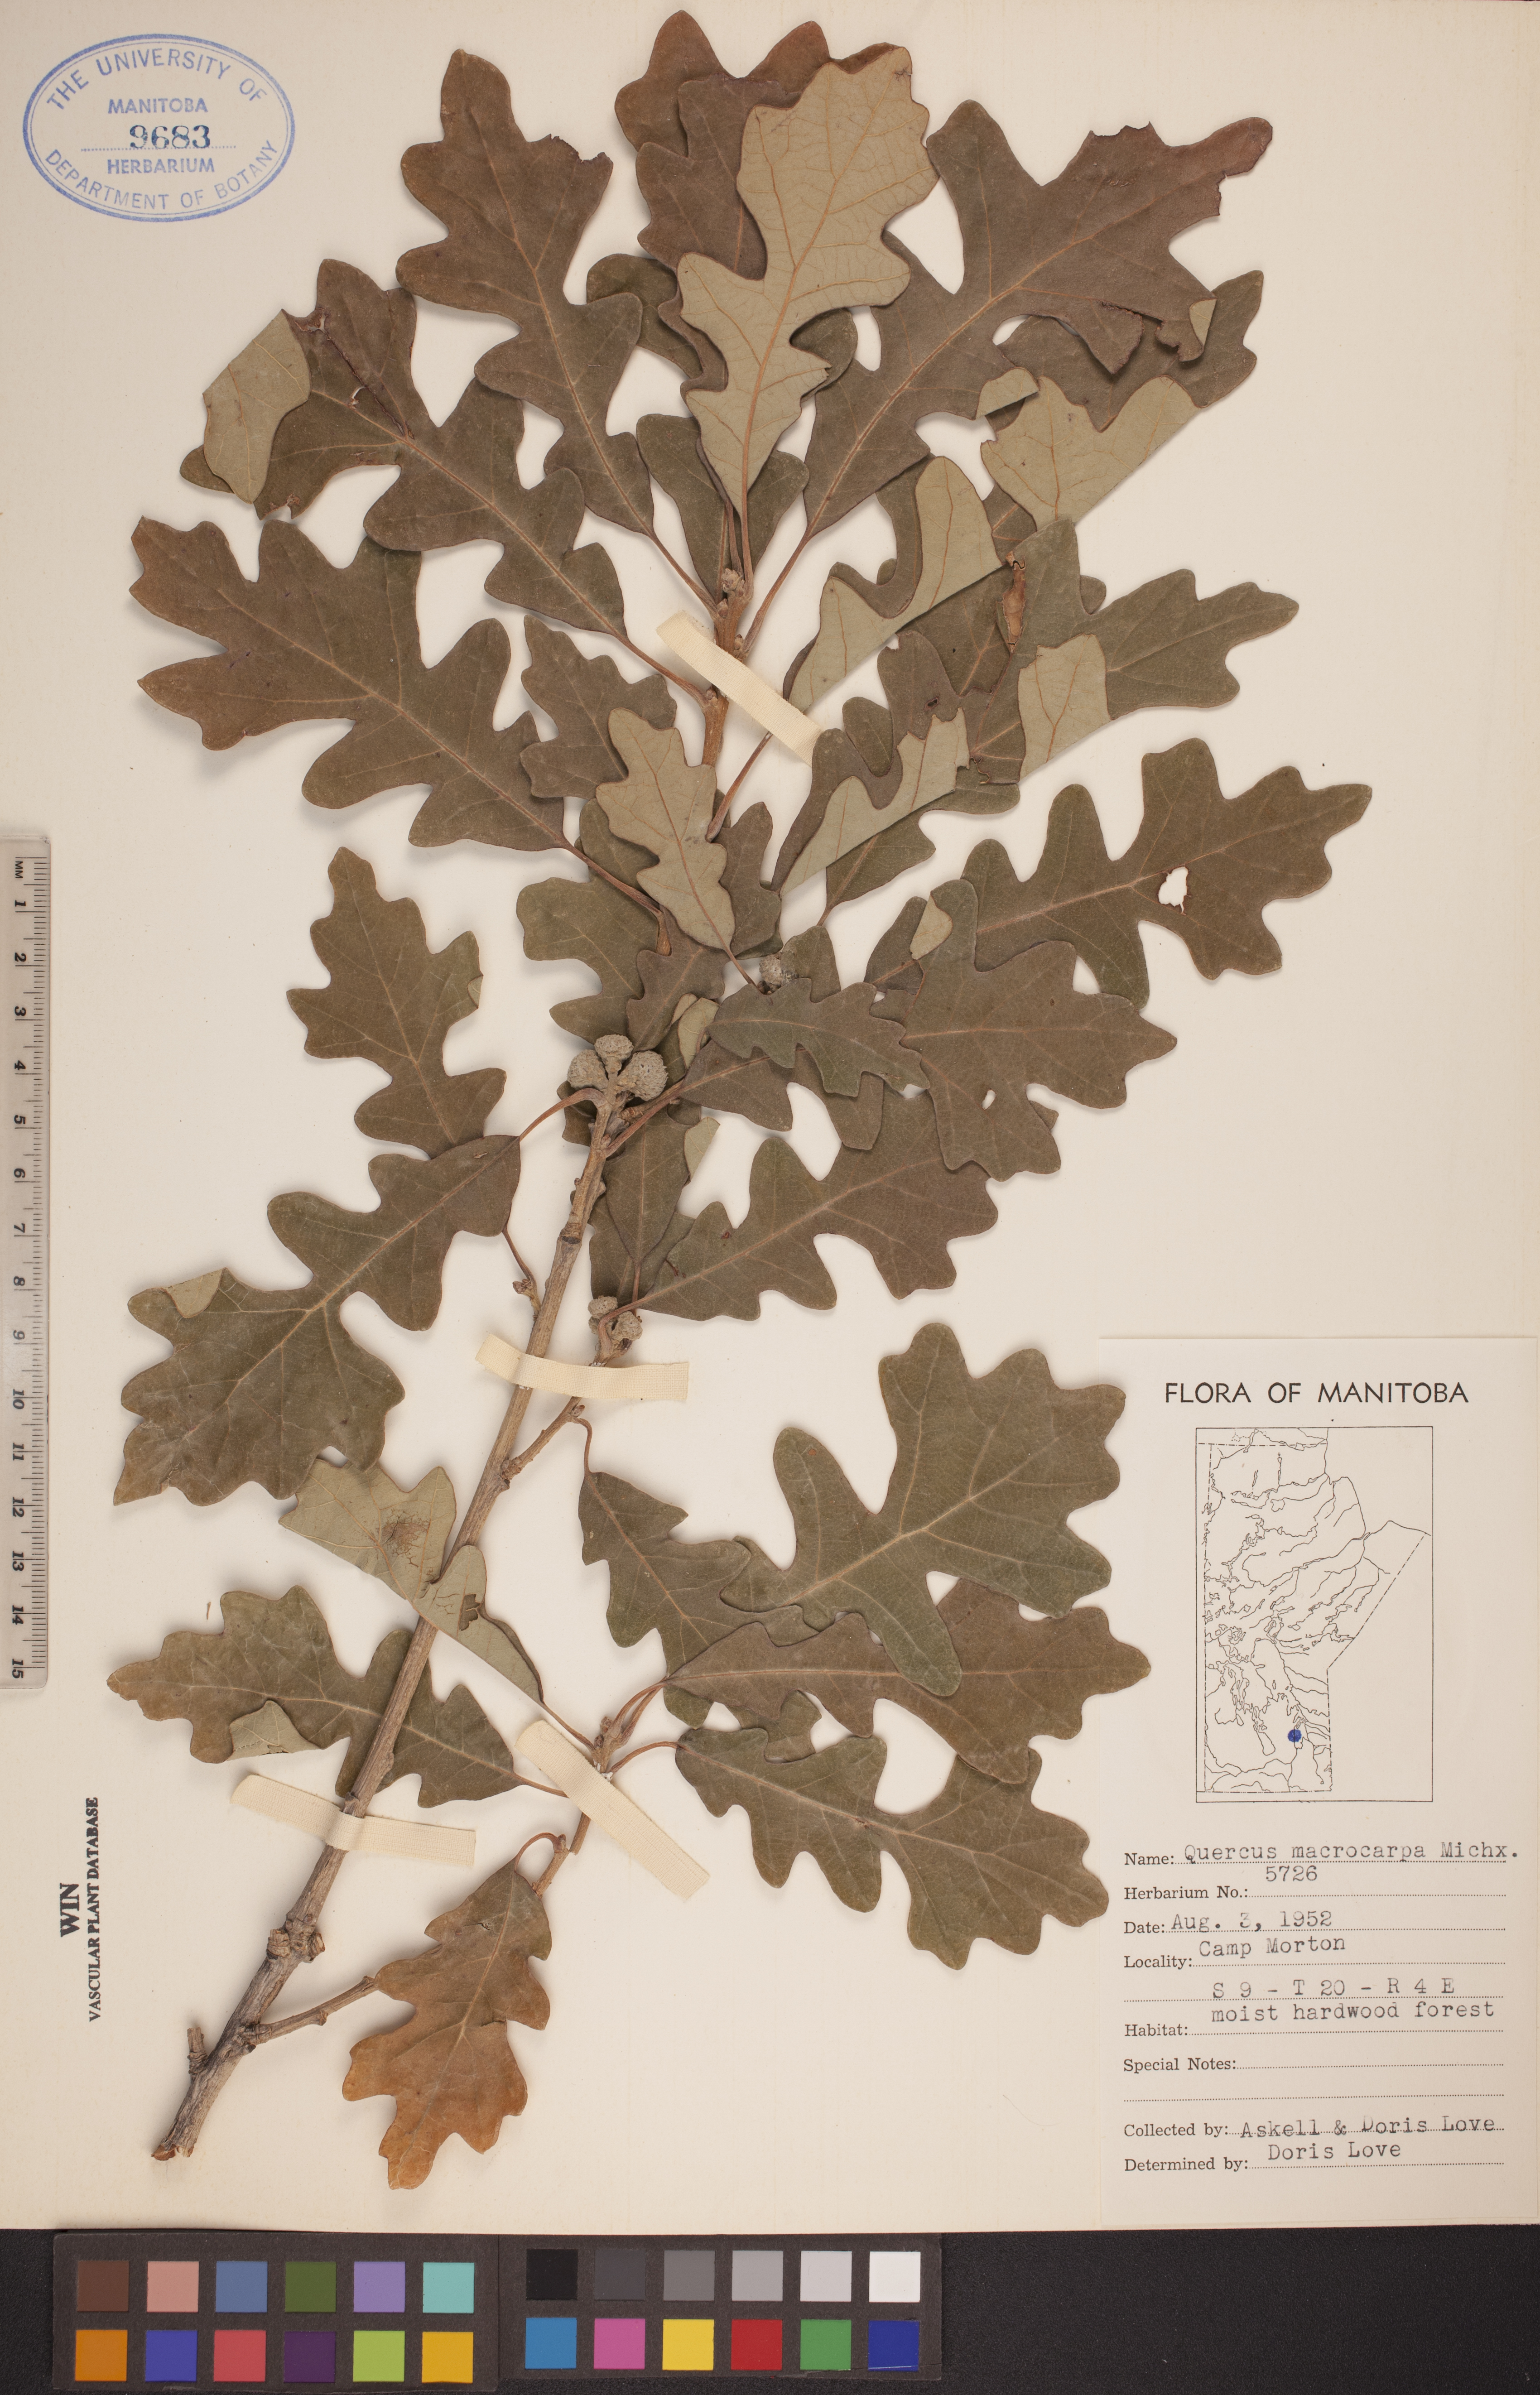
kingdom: Plantae
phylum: Tracheophyta
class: Magnoliopsida
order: Fagales
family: Fagaceae
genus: Quercus
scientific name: Quercus macrocarpa
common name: Bur oak
